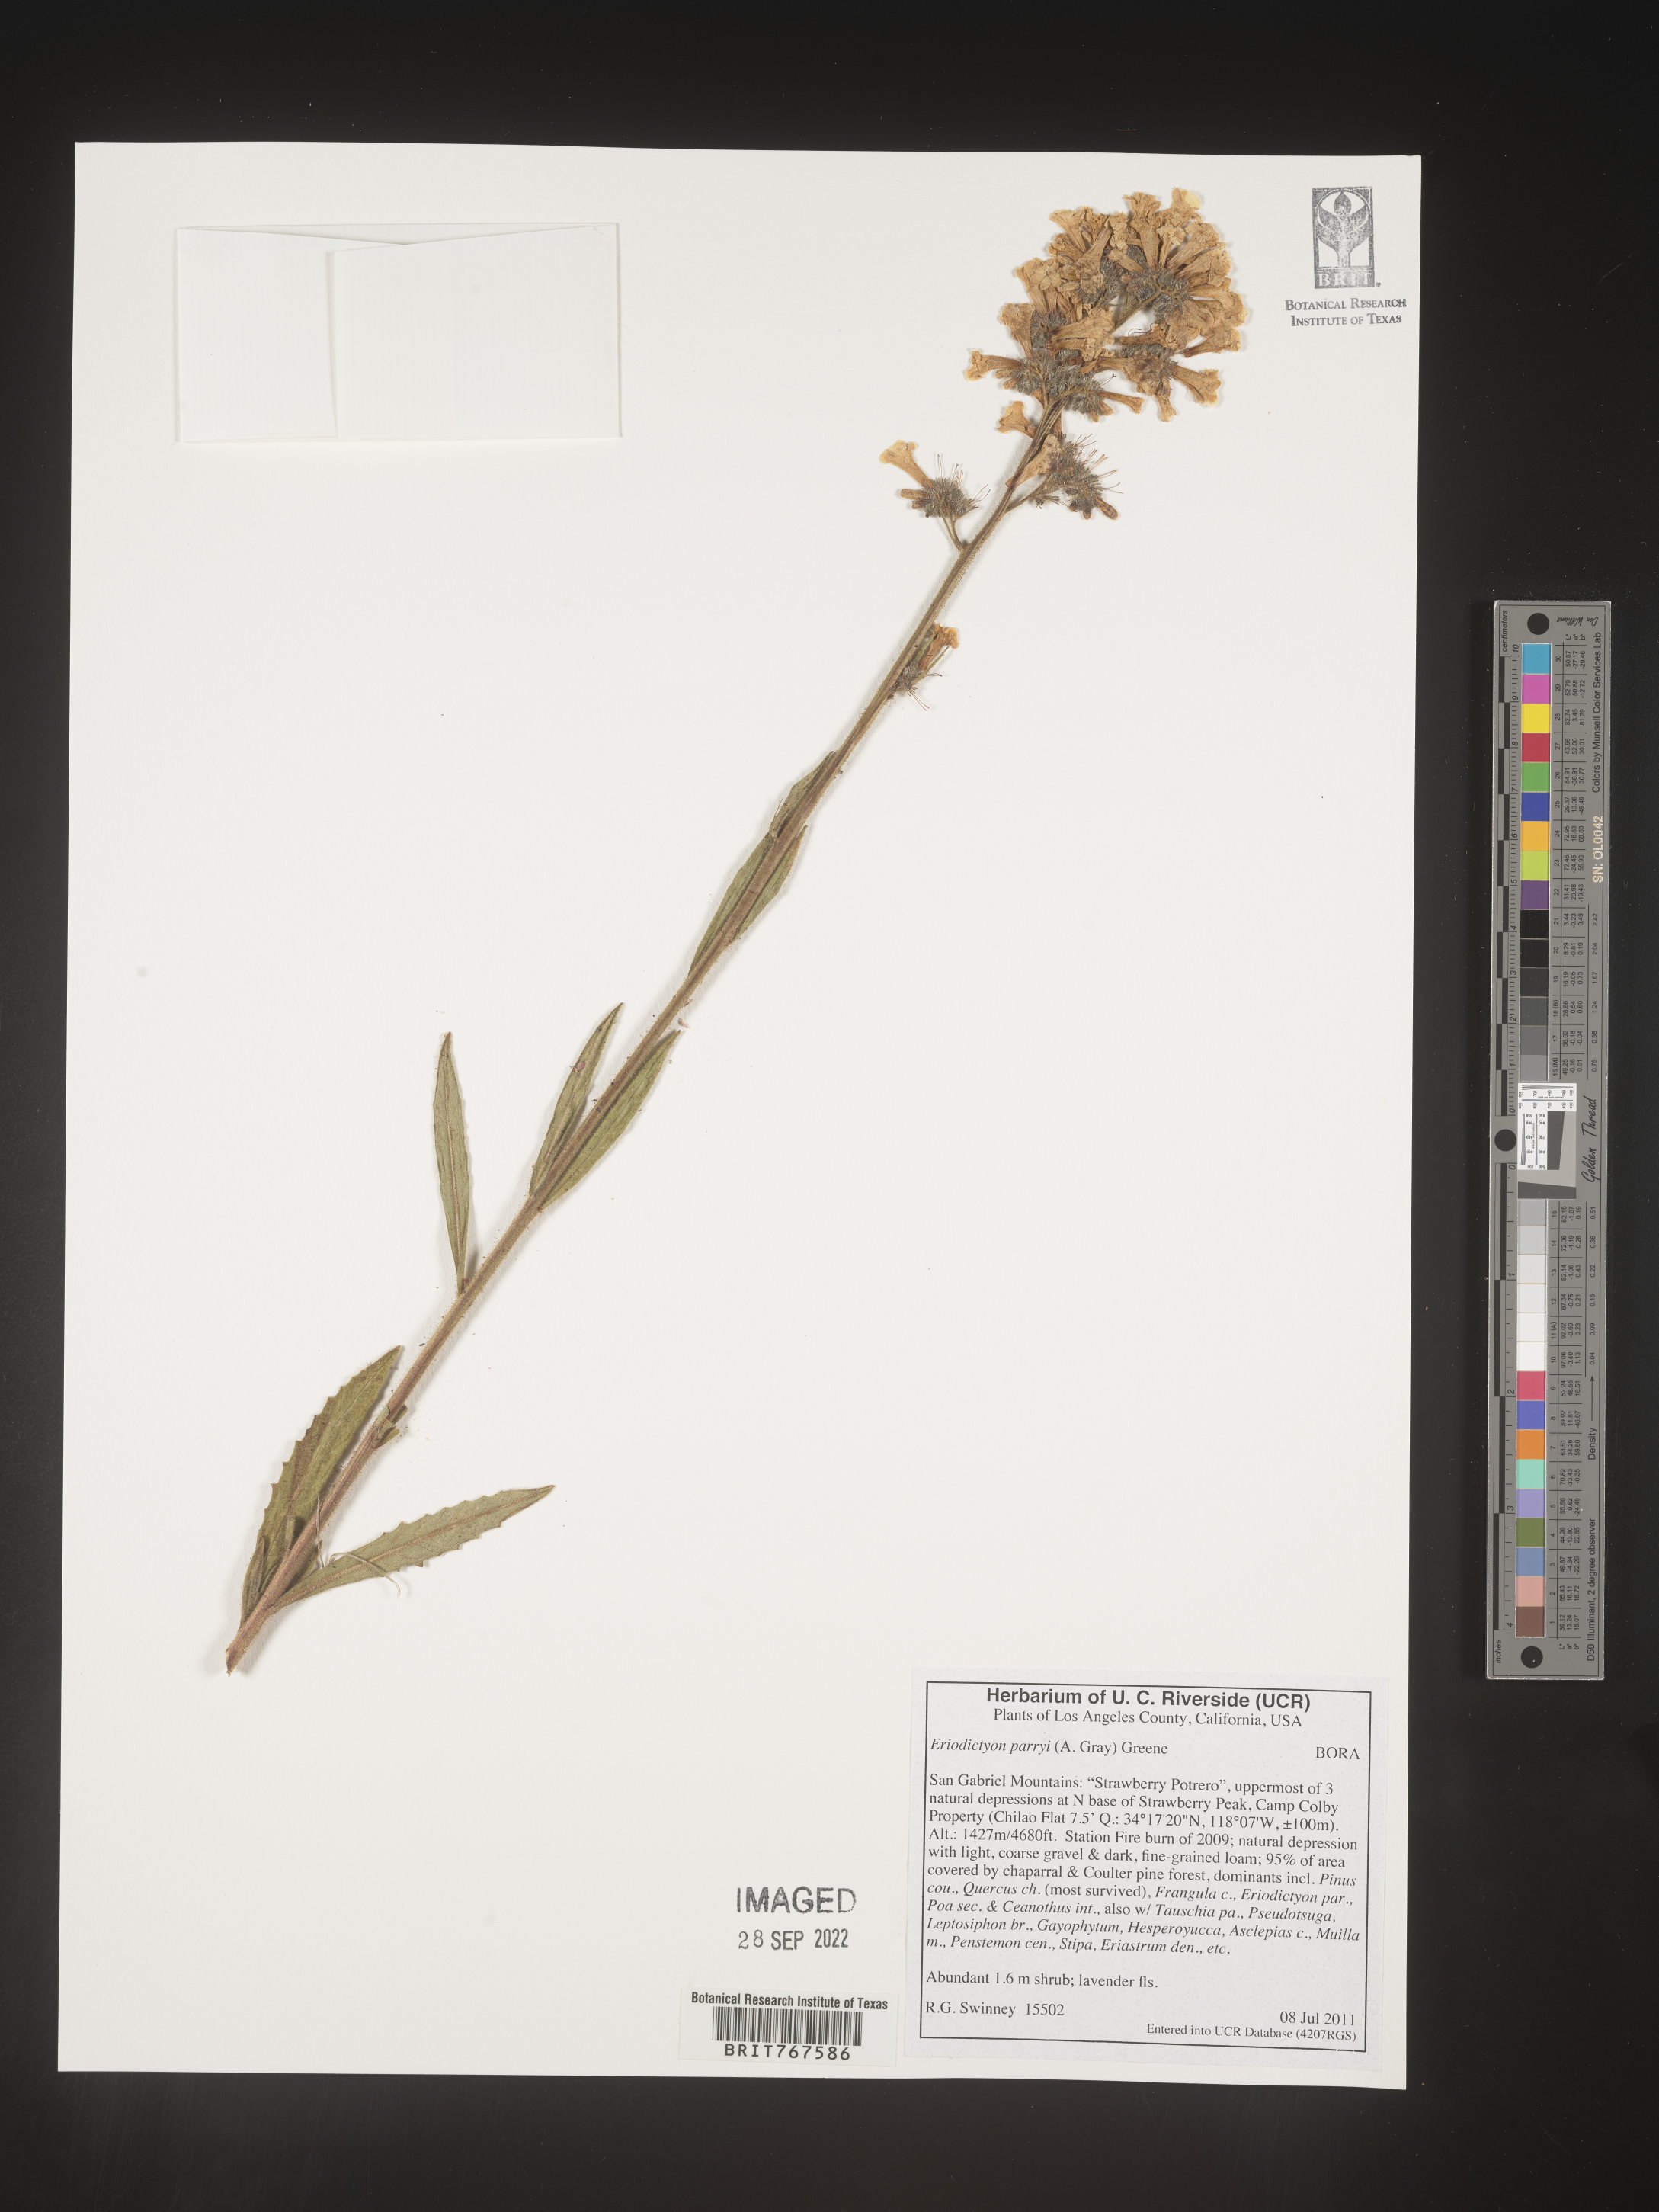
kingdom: Plantae
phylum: Tracheophyta
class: Magnoliopsida
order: Boraginales
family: Namaceae
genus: Turricula
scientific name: Turricula parryi
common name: Poodle-dog-bush
